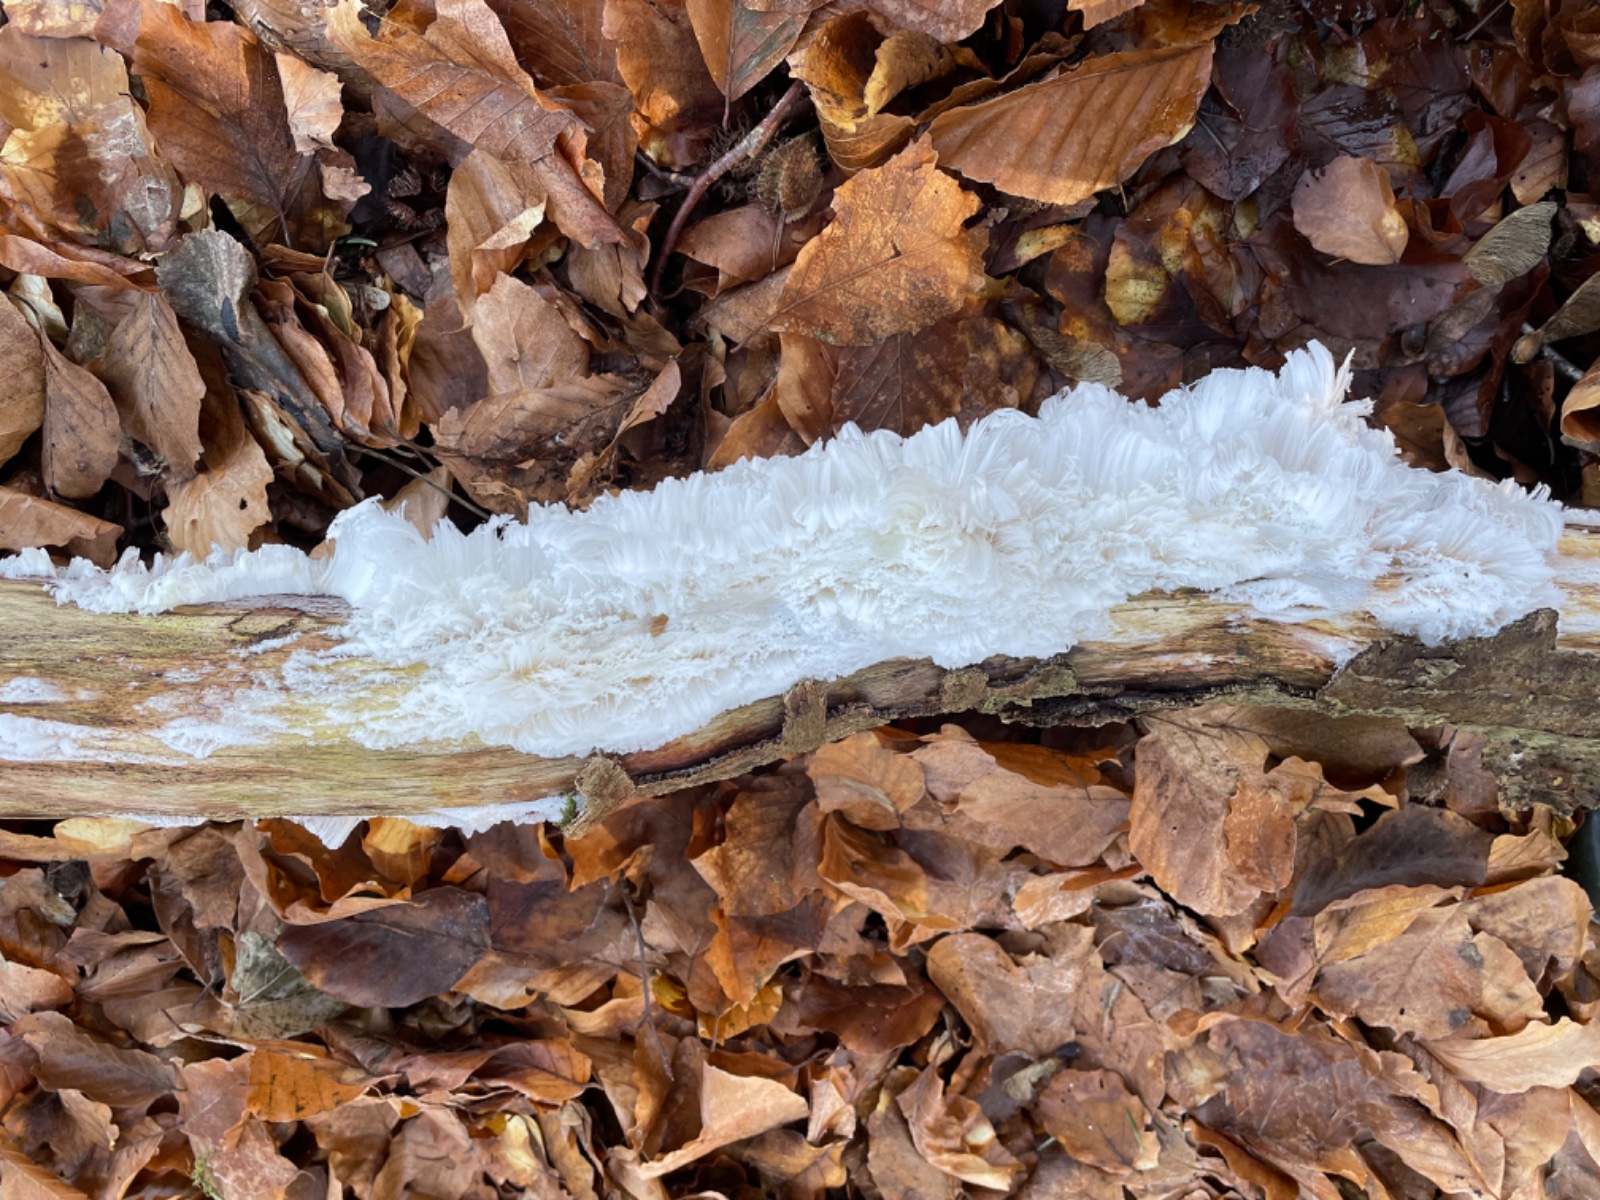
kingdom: Fungi
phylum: Basidiomycota
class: Tremellomycetes
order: Tremellales
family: Exidiaceae
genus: Exidiopsis
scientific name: Exidiopsis effusa
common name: smuk bævrehinde
